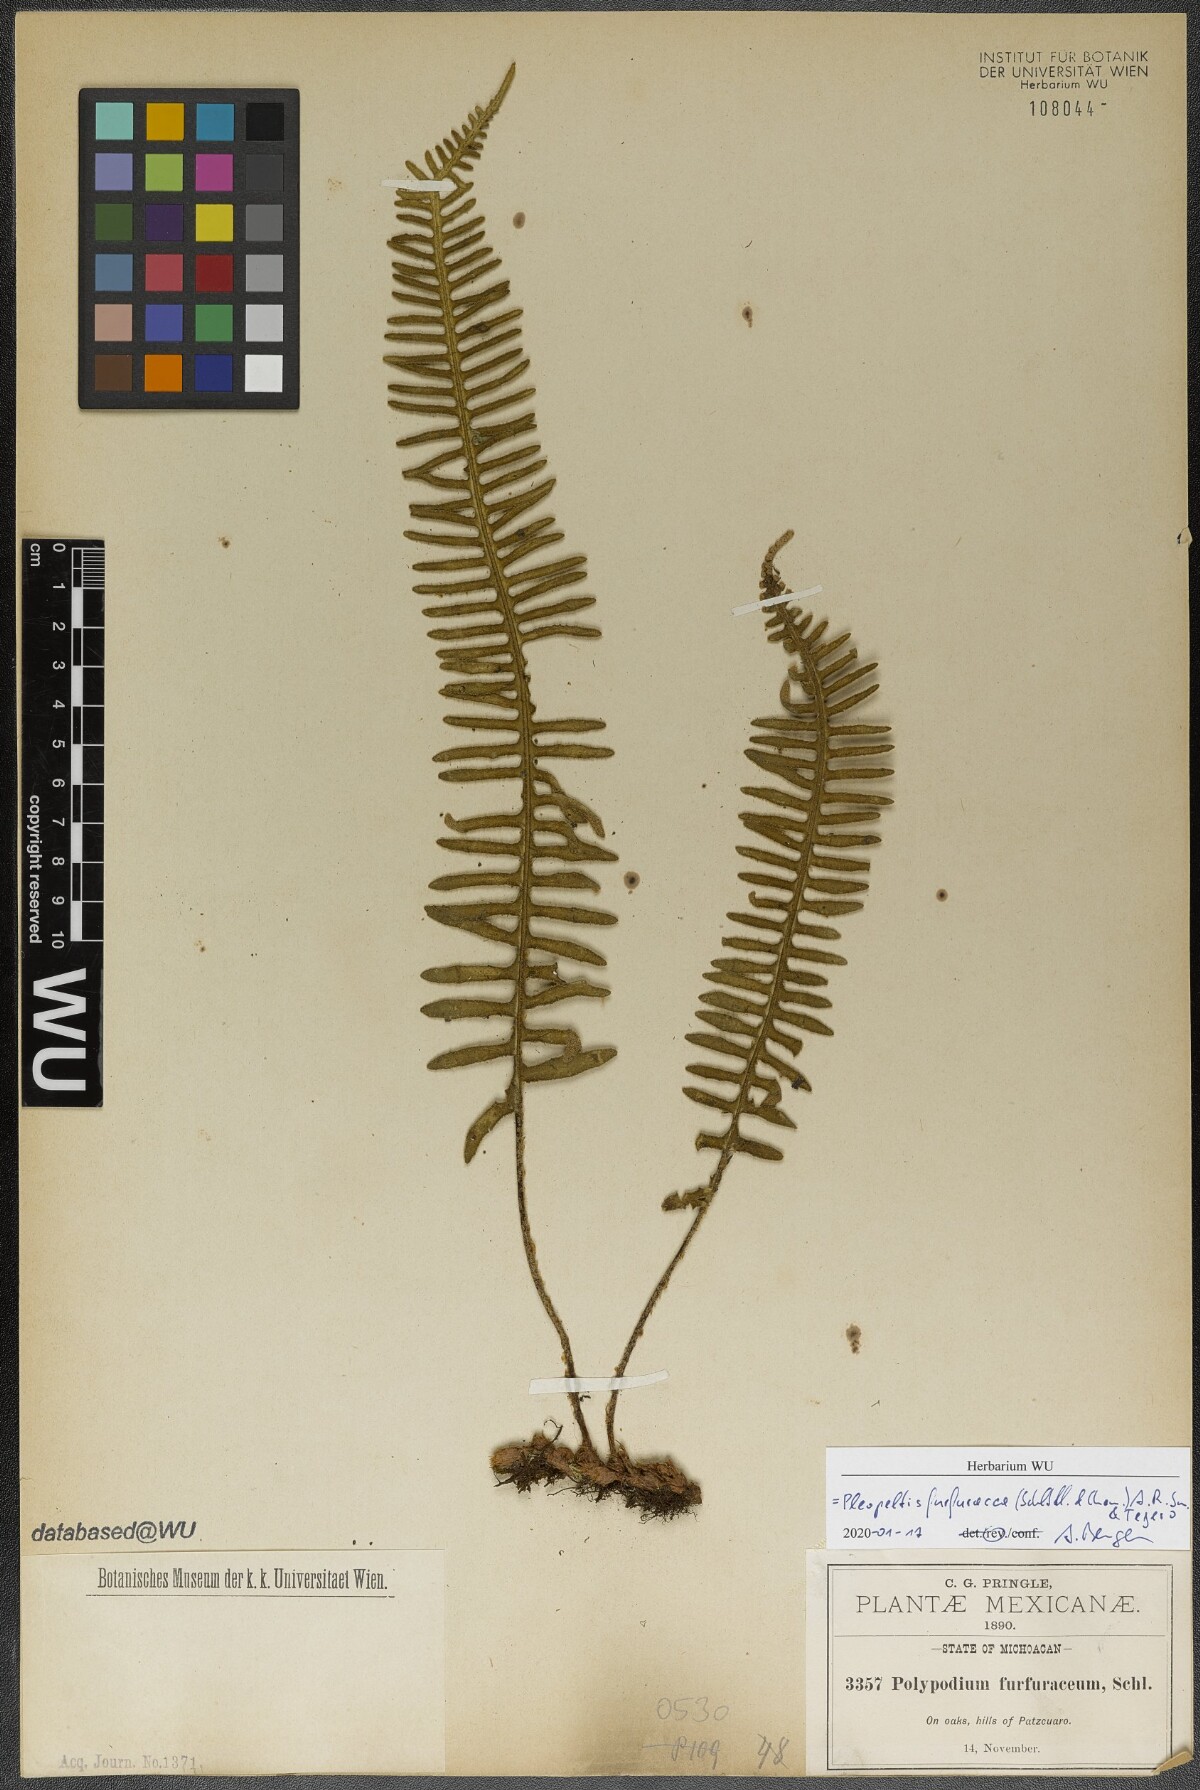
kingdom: Plantae
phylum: Tracheophyta
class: Polypodiopsida
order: Polypodiales
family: Polypodiaceae
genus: Pleopeltis
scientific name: Pleopeltis furfuracea
